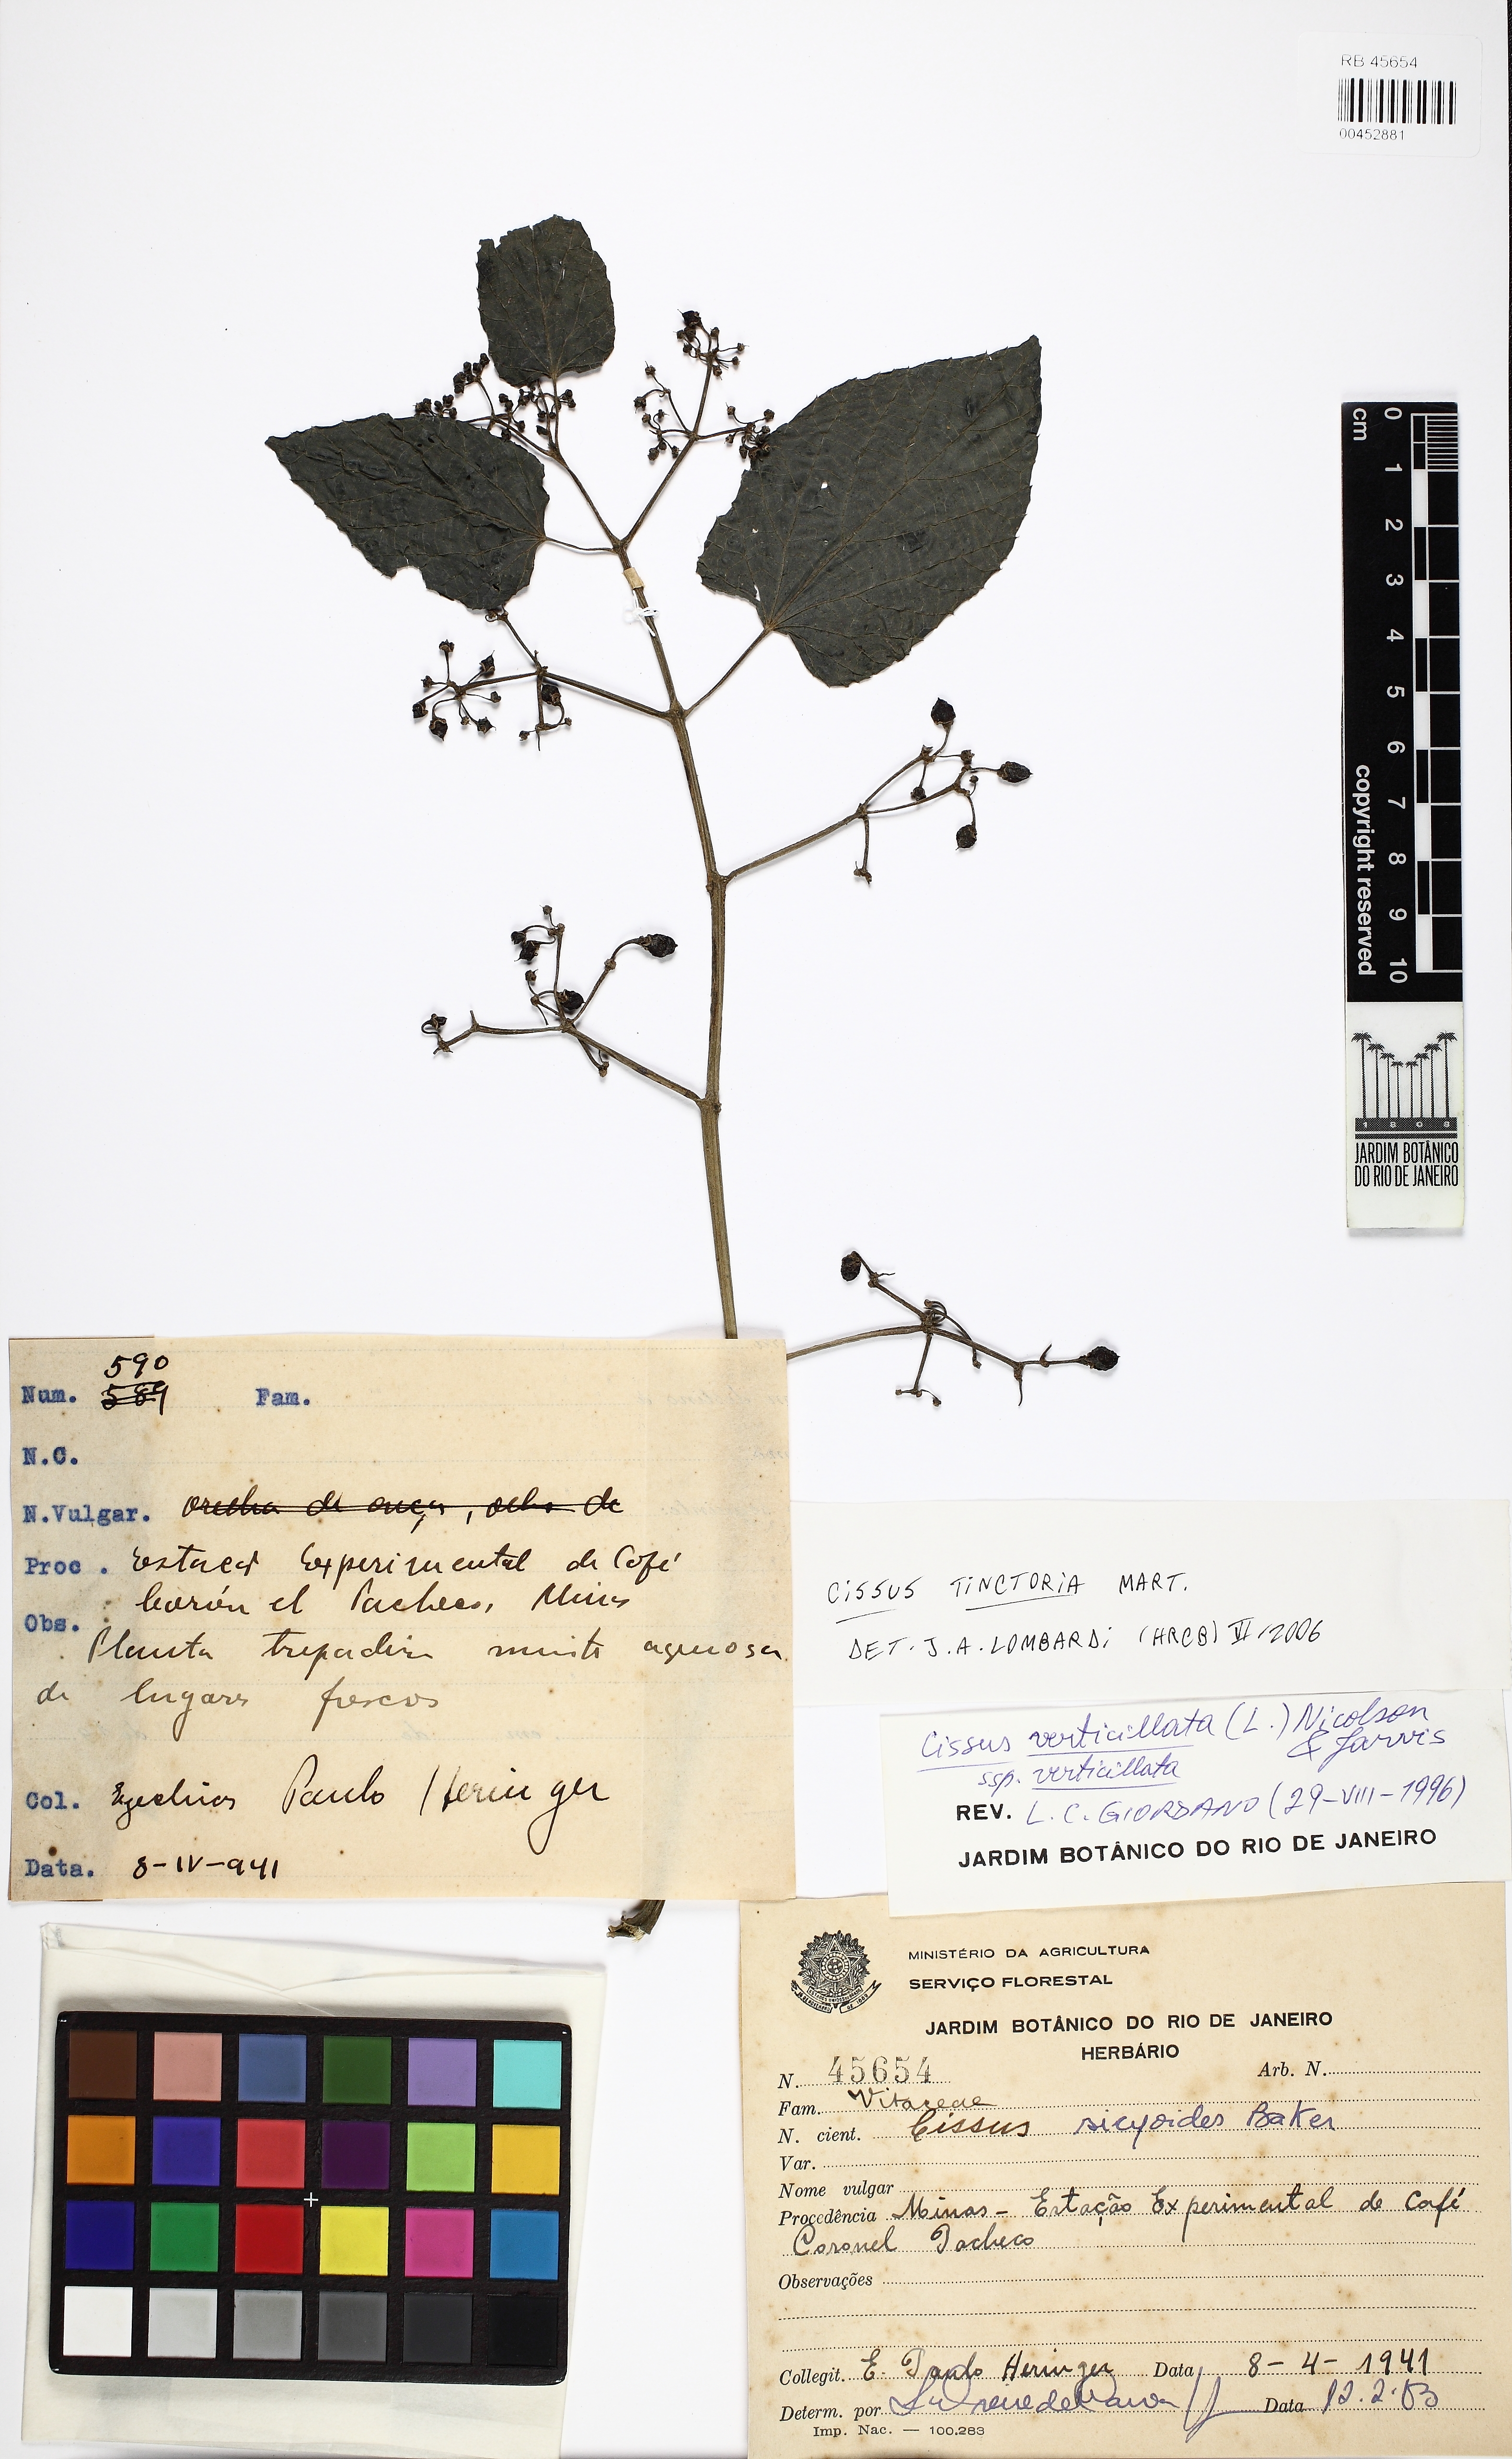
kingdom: Plantae
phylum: Tracheophyta
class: Magnoliopsida
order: Vitales
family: Vitaceae
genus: Cissus
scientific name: Cissus tinctoria
